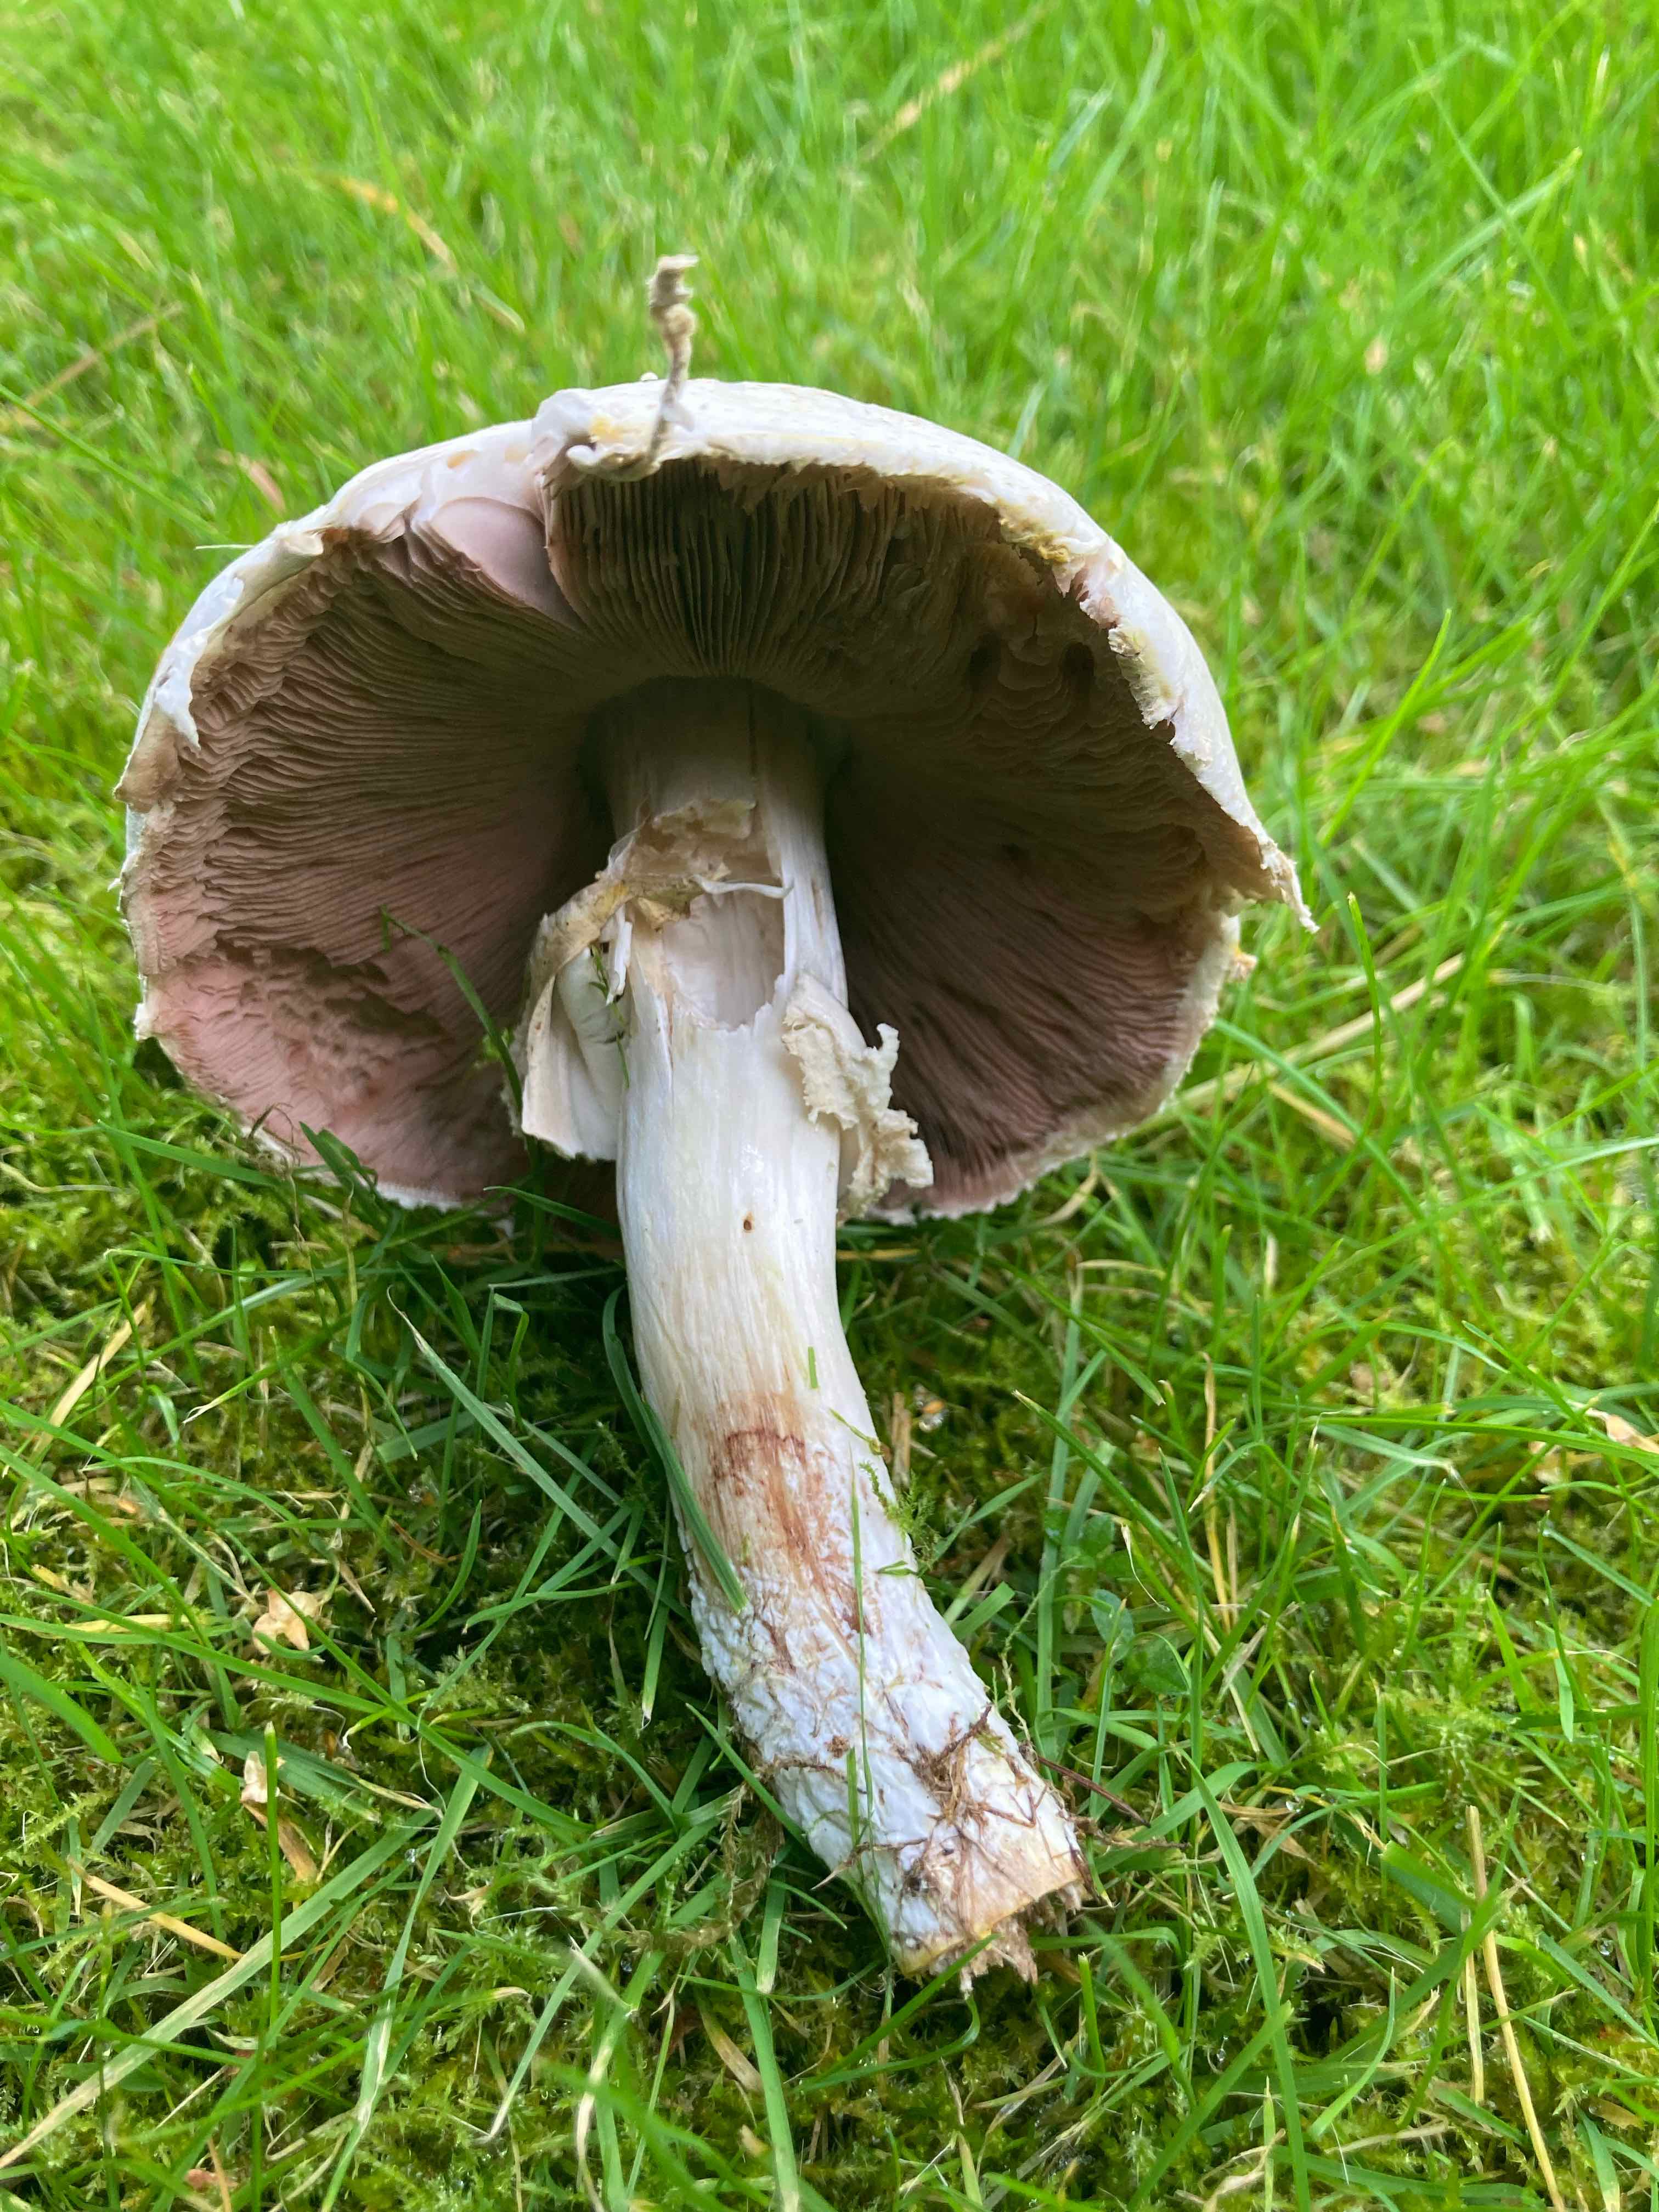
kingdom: Fungi
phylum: Basidiomycota
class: Agaricomycetes
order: Agaricales
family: Agaricaceae
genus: Agaricus
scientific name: Agaricus
